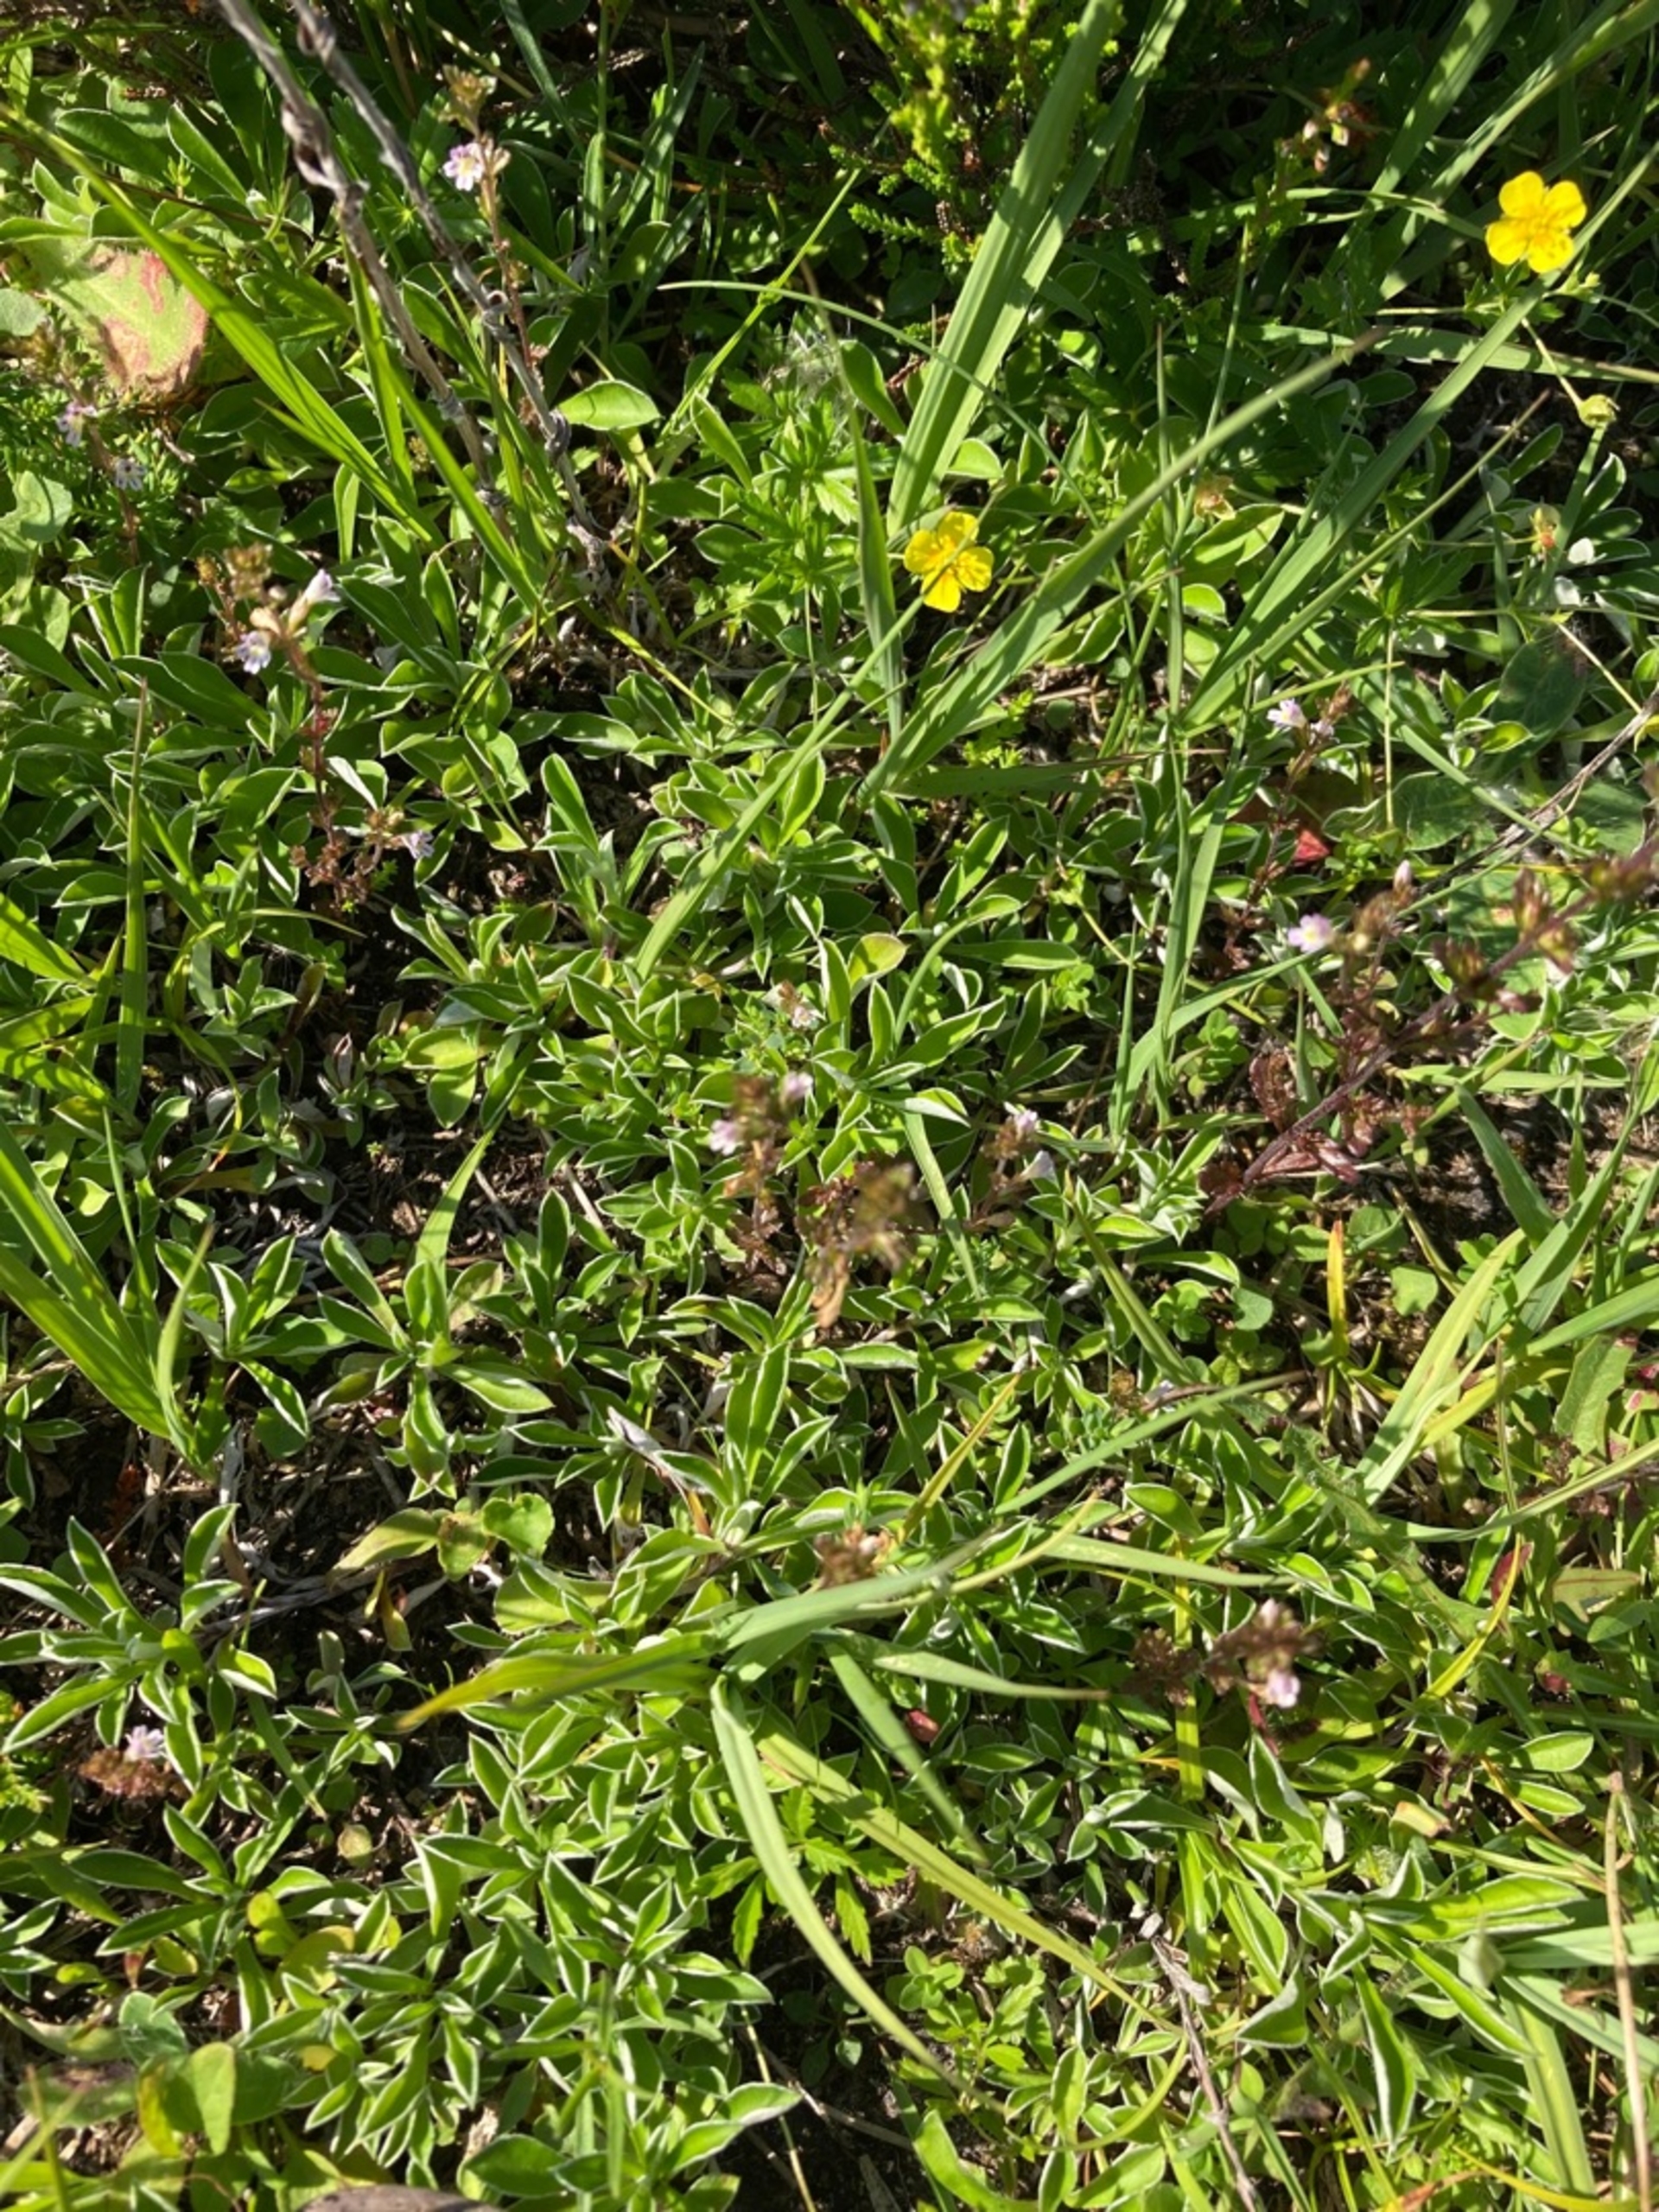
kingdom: Plantae
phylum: Tracheophyta
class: Magnoliopsida
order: Asterales
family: Asteraceae
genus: Antennaria
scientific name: Antennaria dioica
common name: Kattefod
